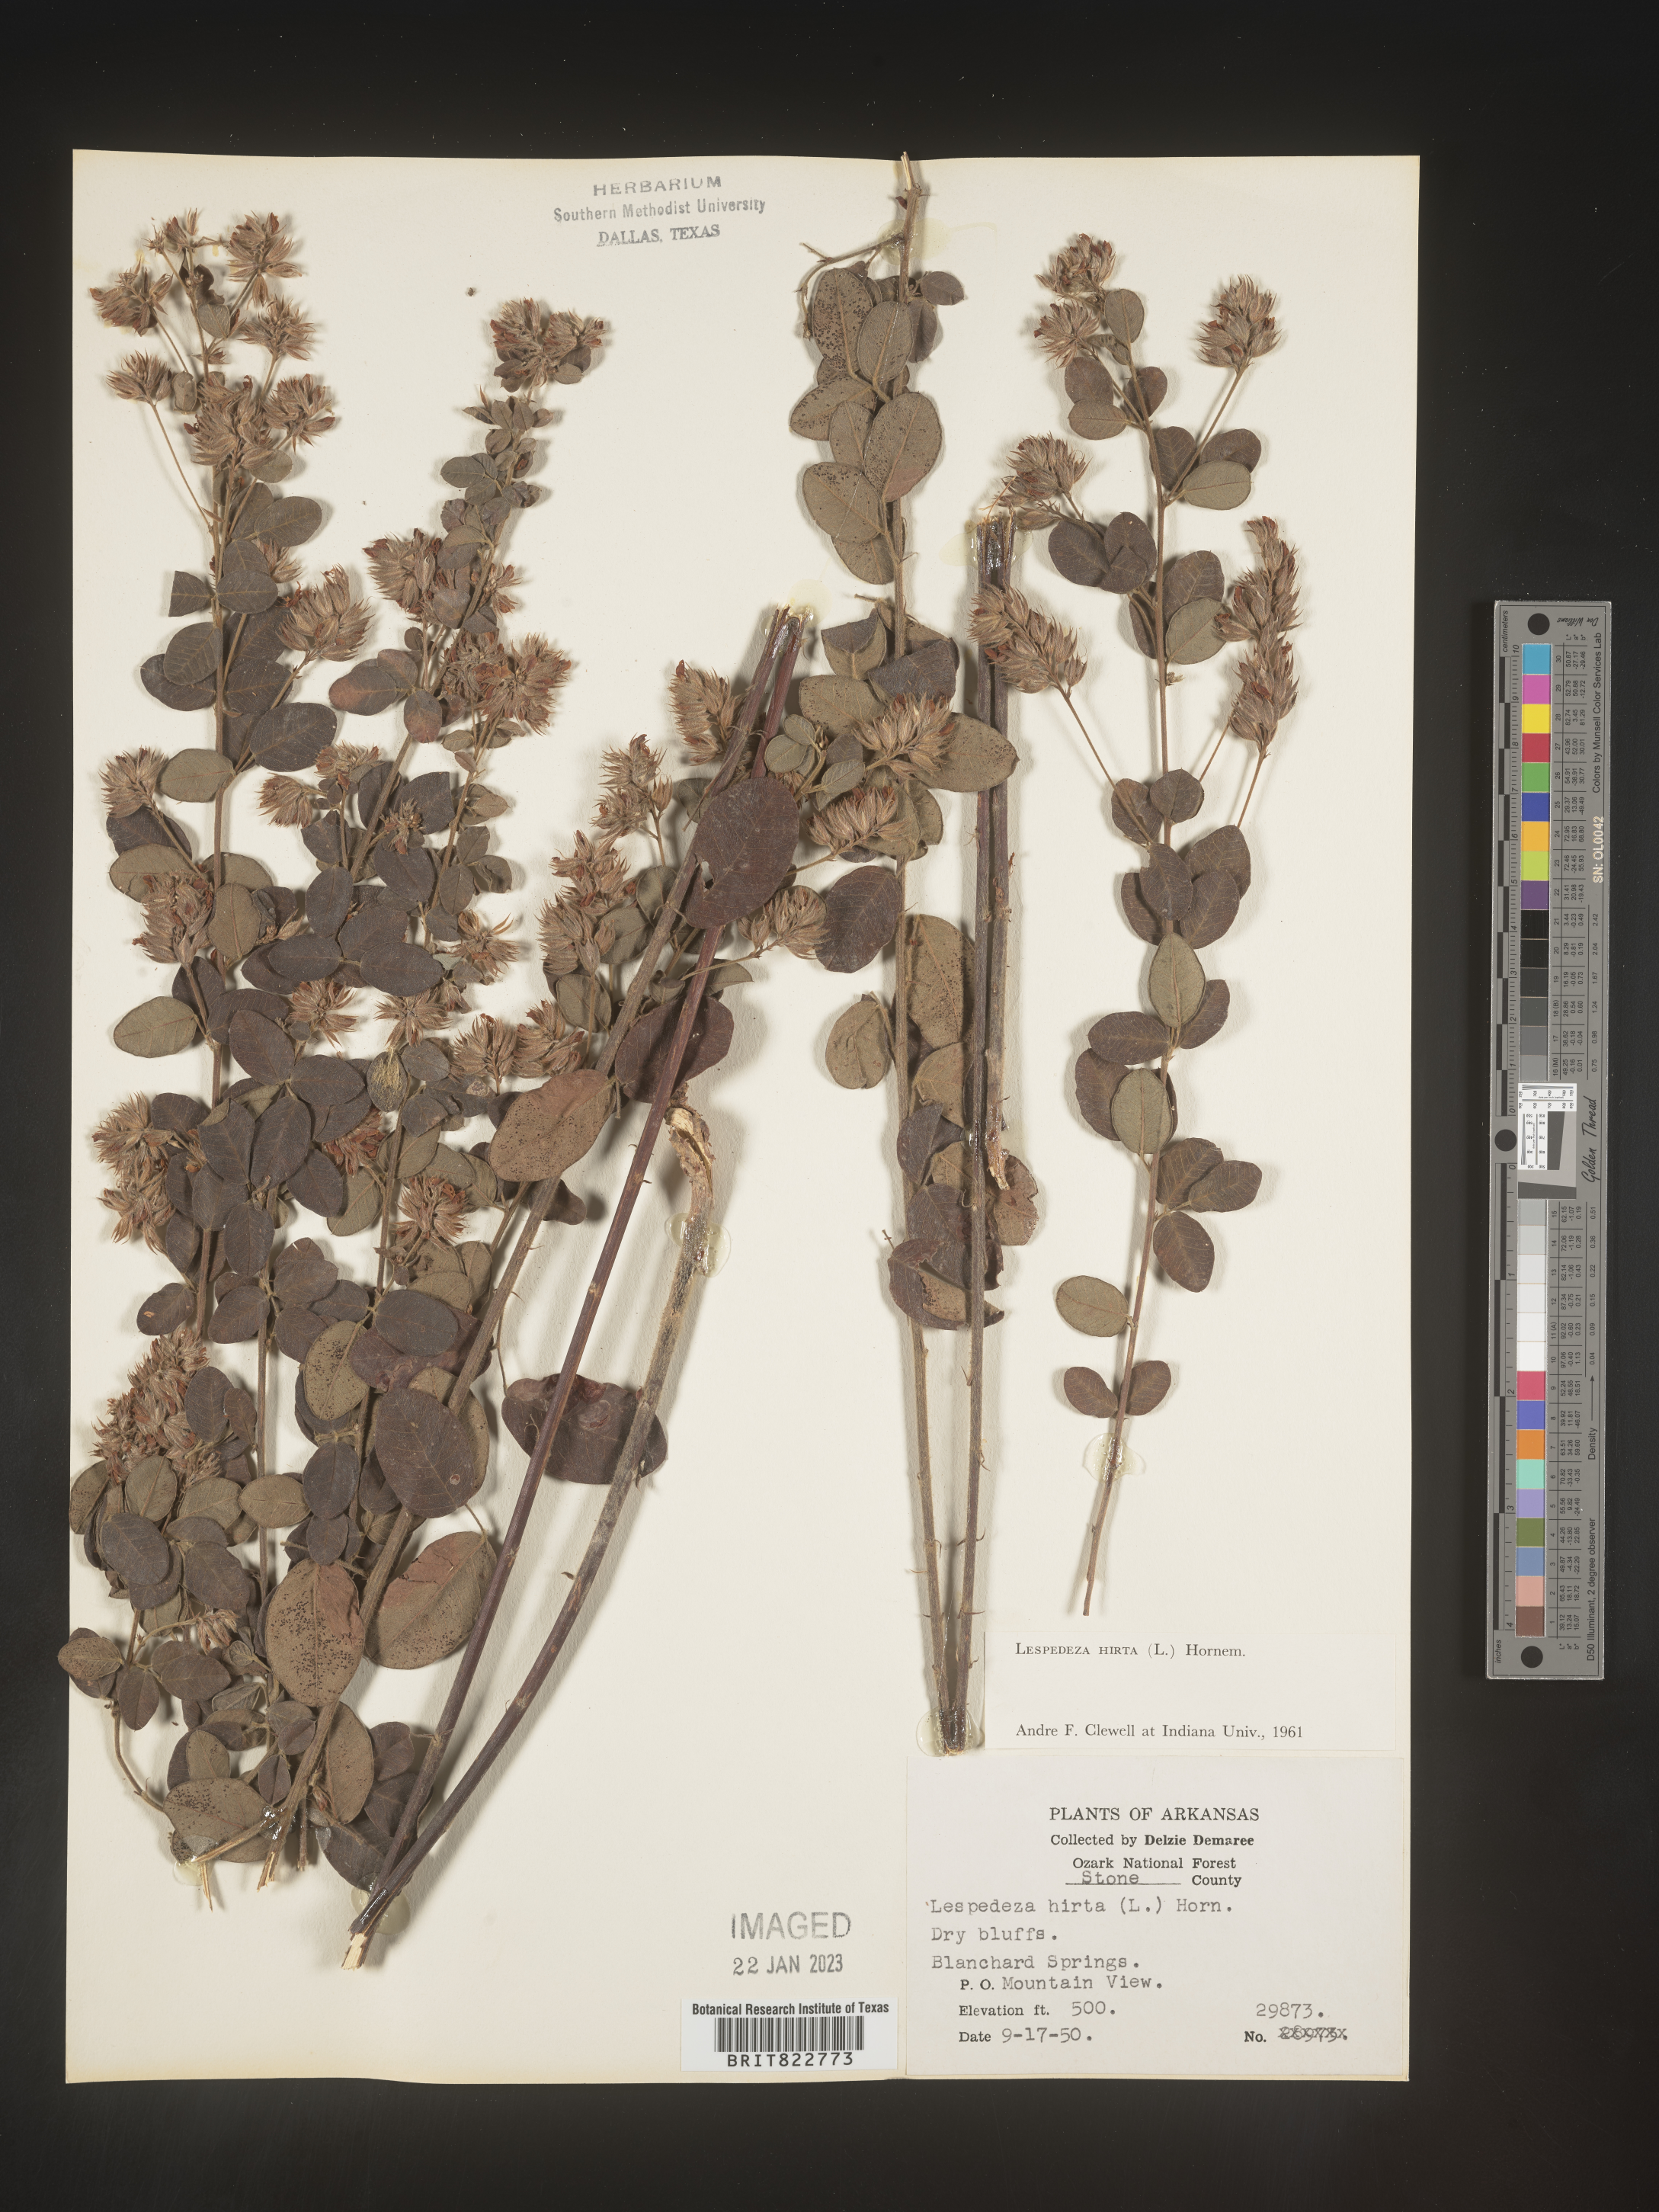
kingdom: Plantae
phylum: Tracheophyta
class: Magnoliopsida
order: Fabales
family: Fabaceae
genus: Lespedeza
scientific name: Lespedeza hirta
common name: Hairy lespedeza
